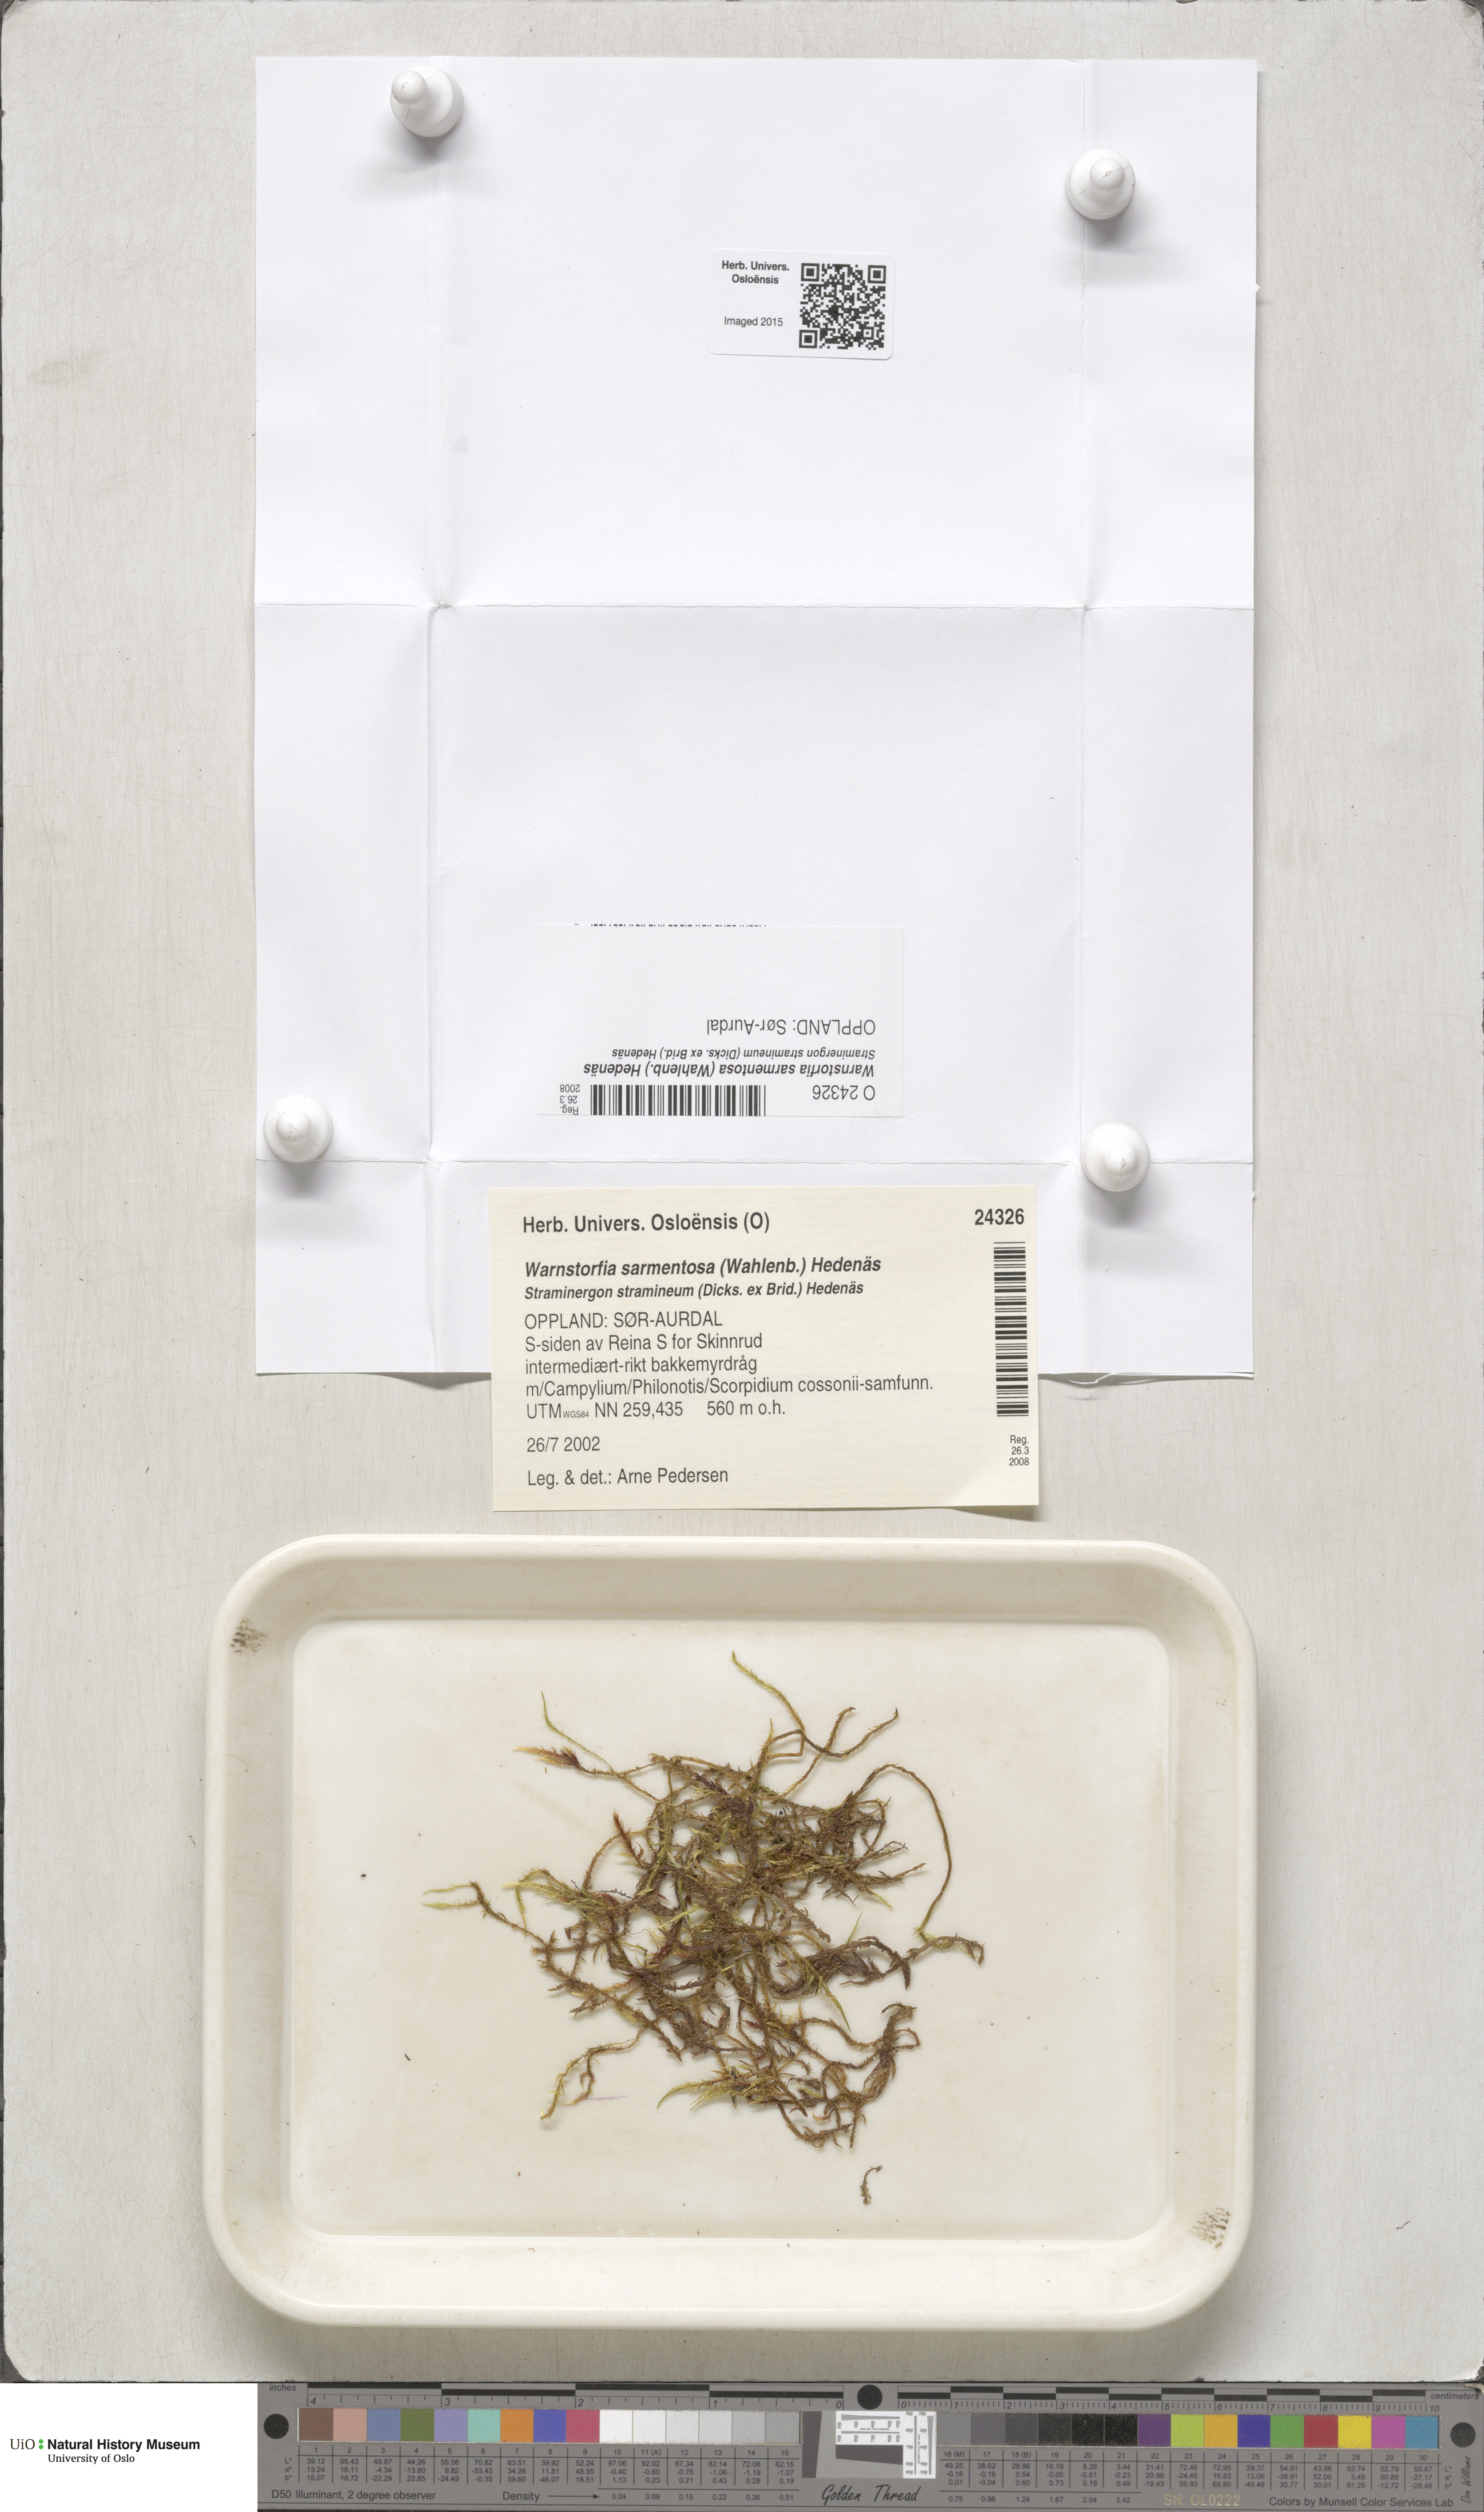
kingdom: Plantae
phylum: Bryophyta
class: Bryopsida
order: Hypnales
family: Calliergonaceae
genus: Sarmentypnum
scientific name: Sarmentypnum sarmentosum
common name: Twiggy spoon moss
